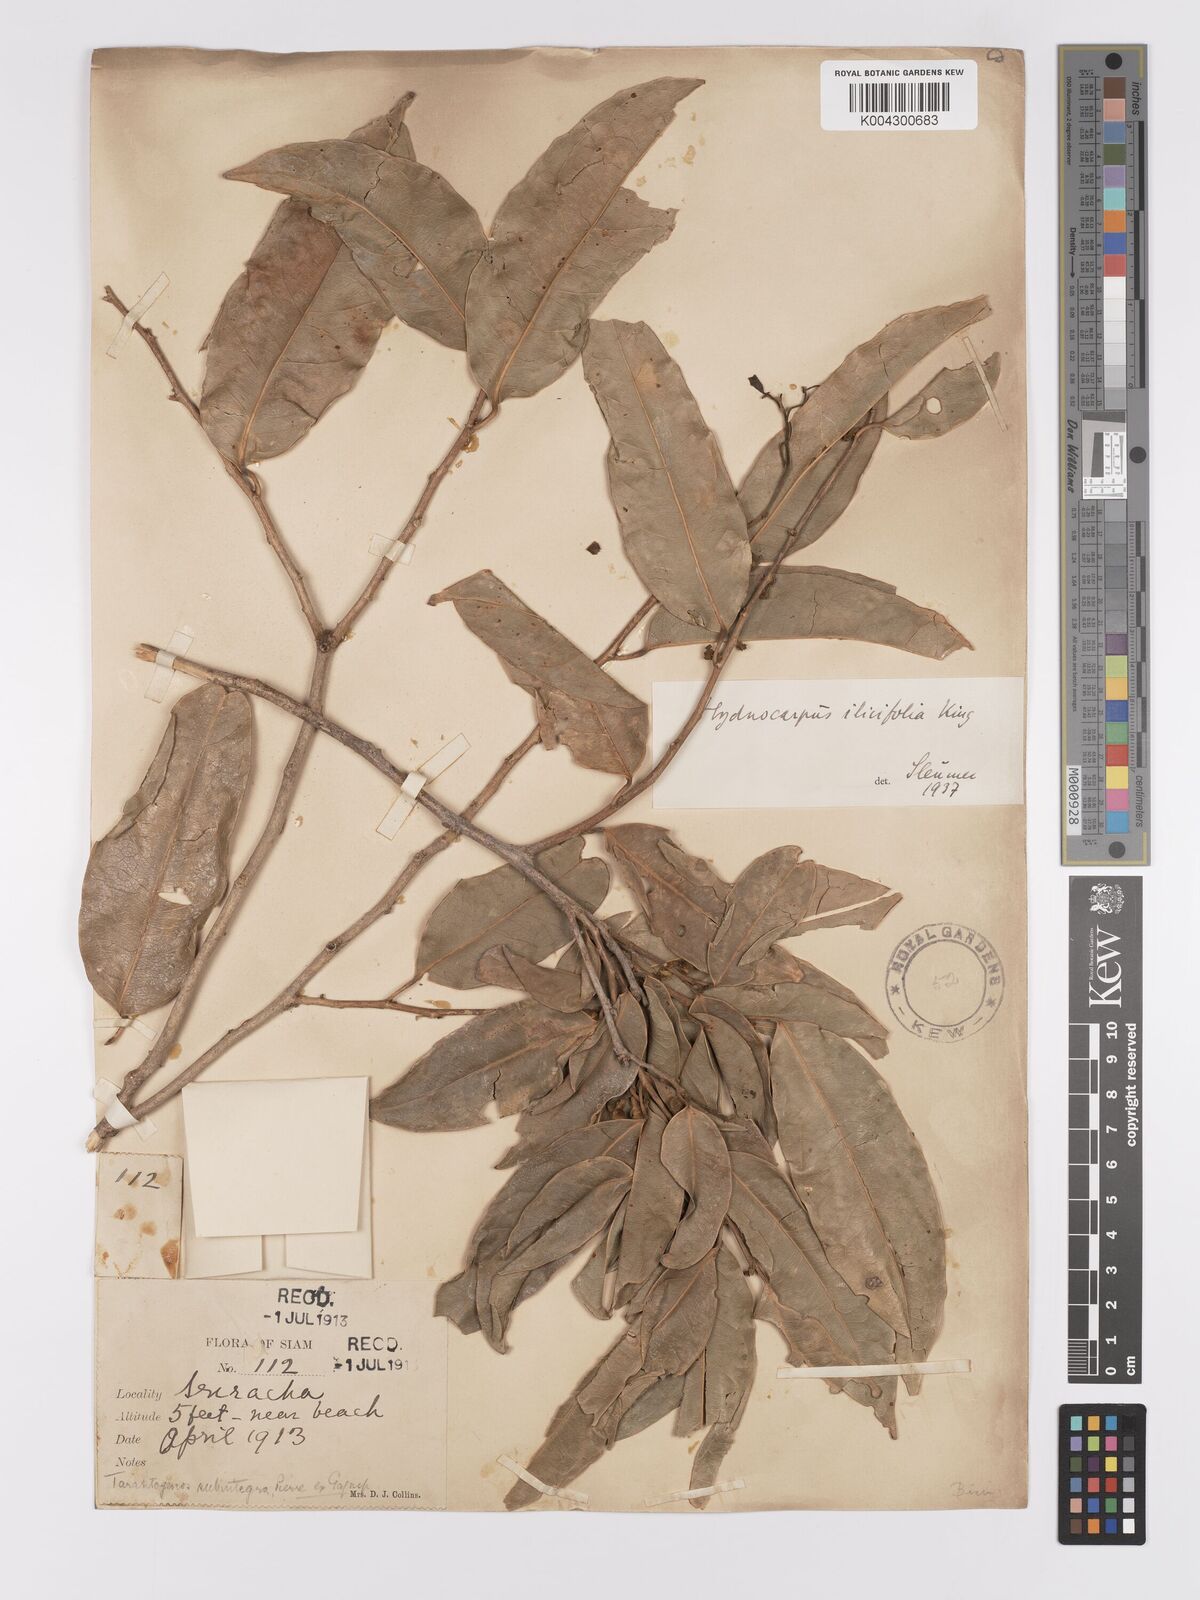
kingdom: Plantae
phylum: Tracheophyta
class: Magnoliopsida
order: Malpighiales
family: Achariaceae
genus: Hydnocarpus
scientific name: Hydnocarpus ilicifolius
